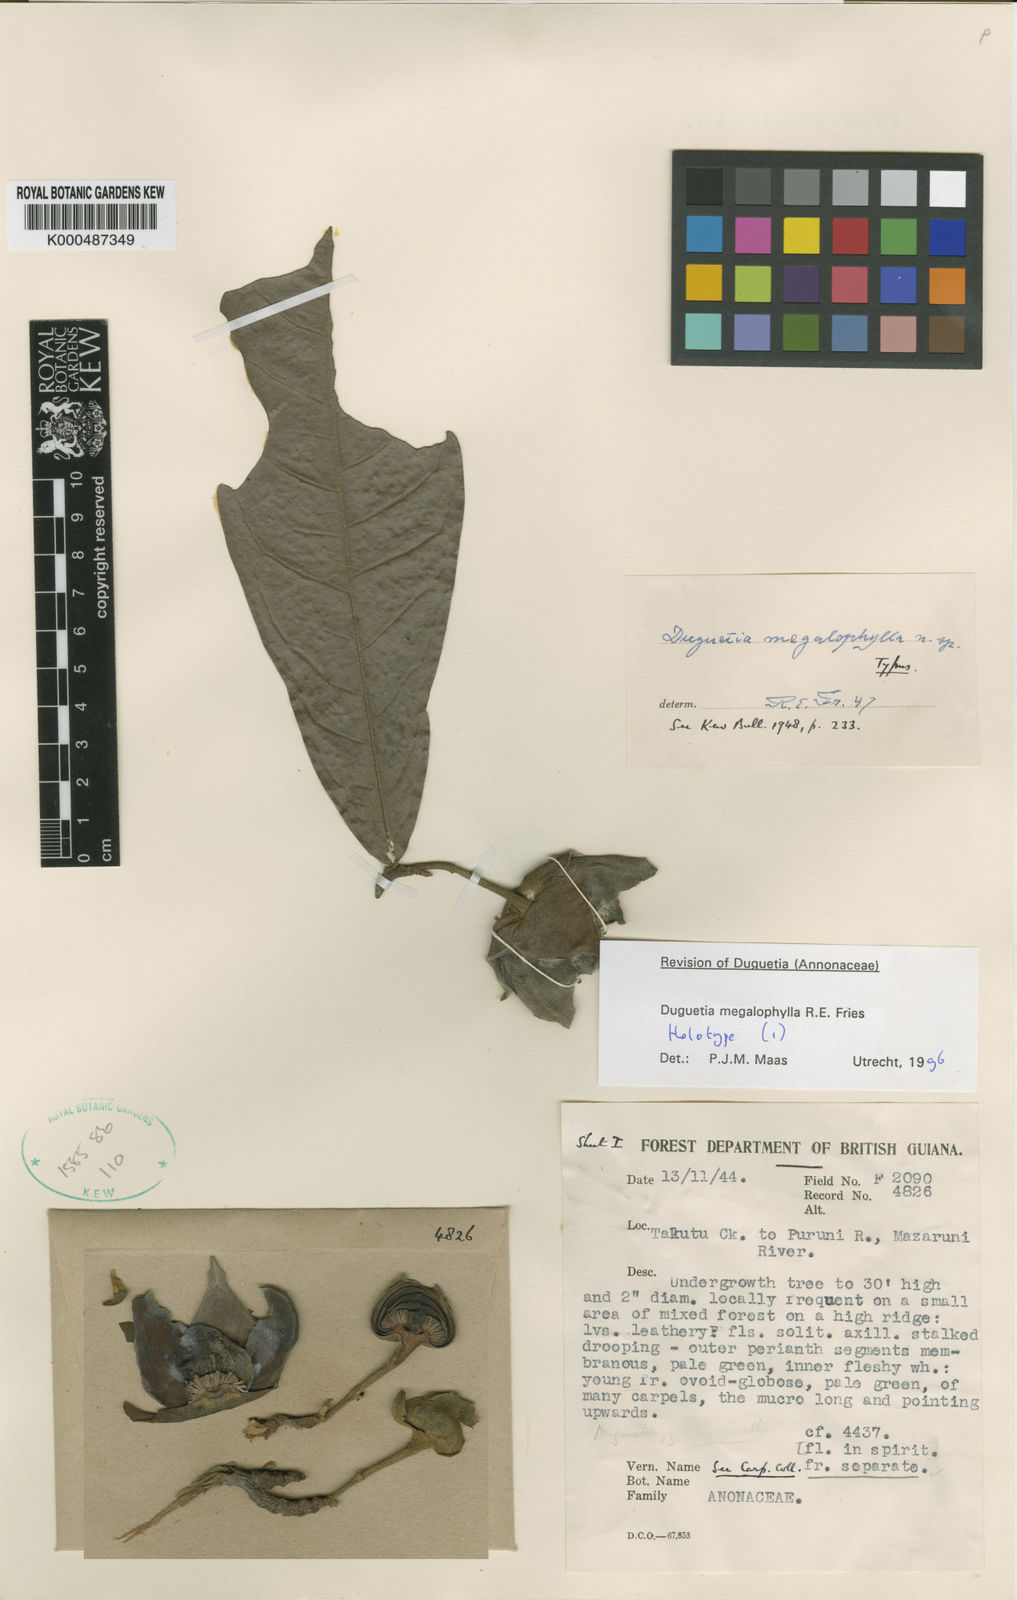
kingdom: Plantae
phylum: Tracheophyta
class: Magnoliopsida
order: Magnoliales
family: Annonaceae
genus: Duguetia
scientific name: Duguetia megalophylla
